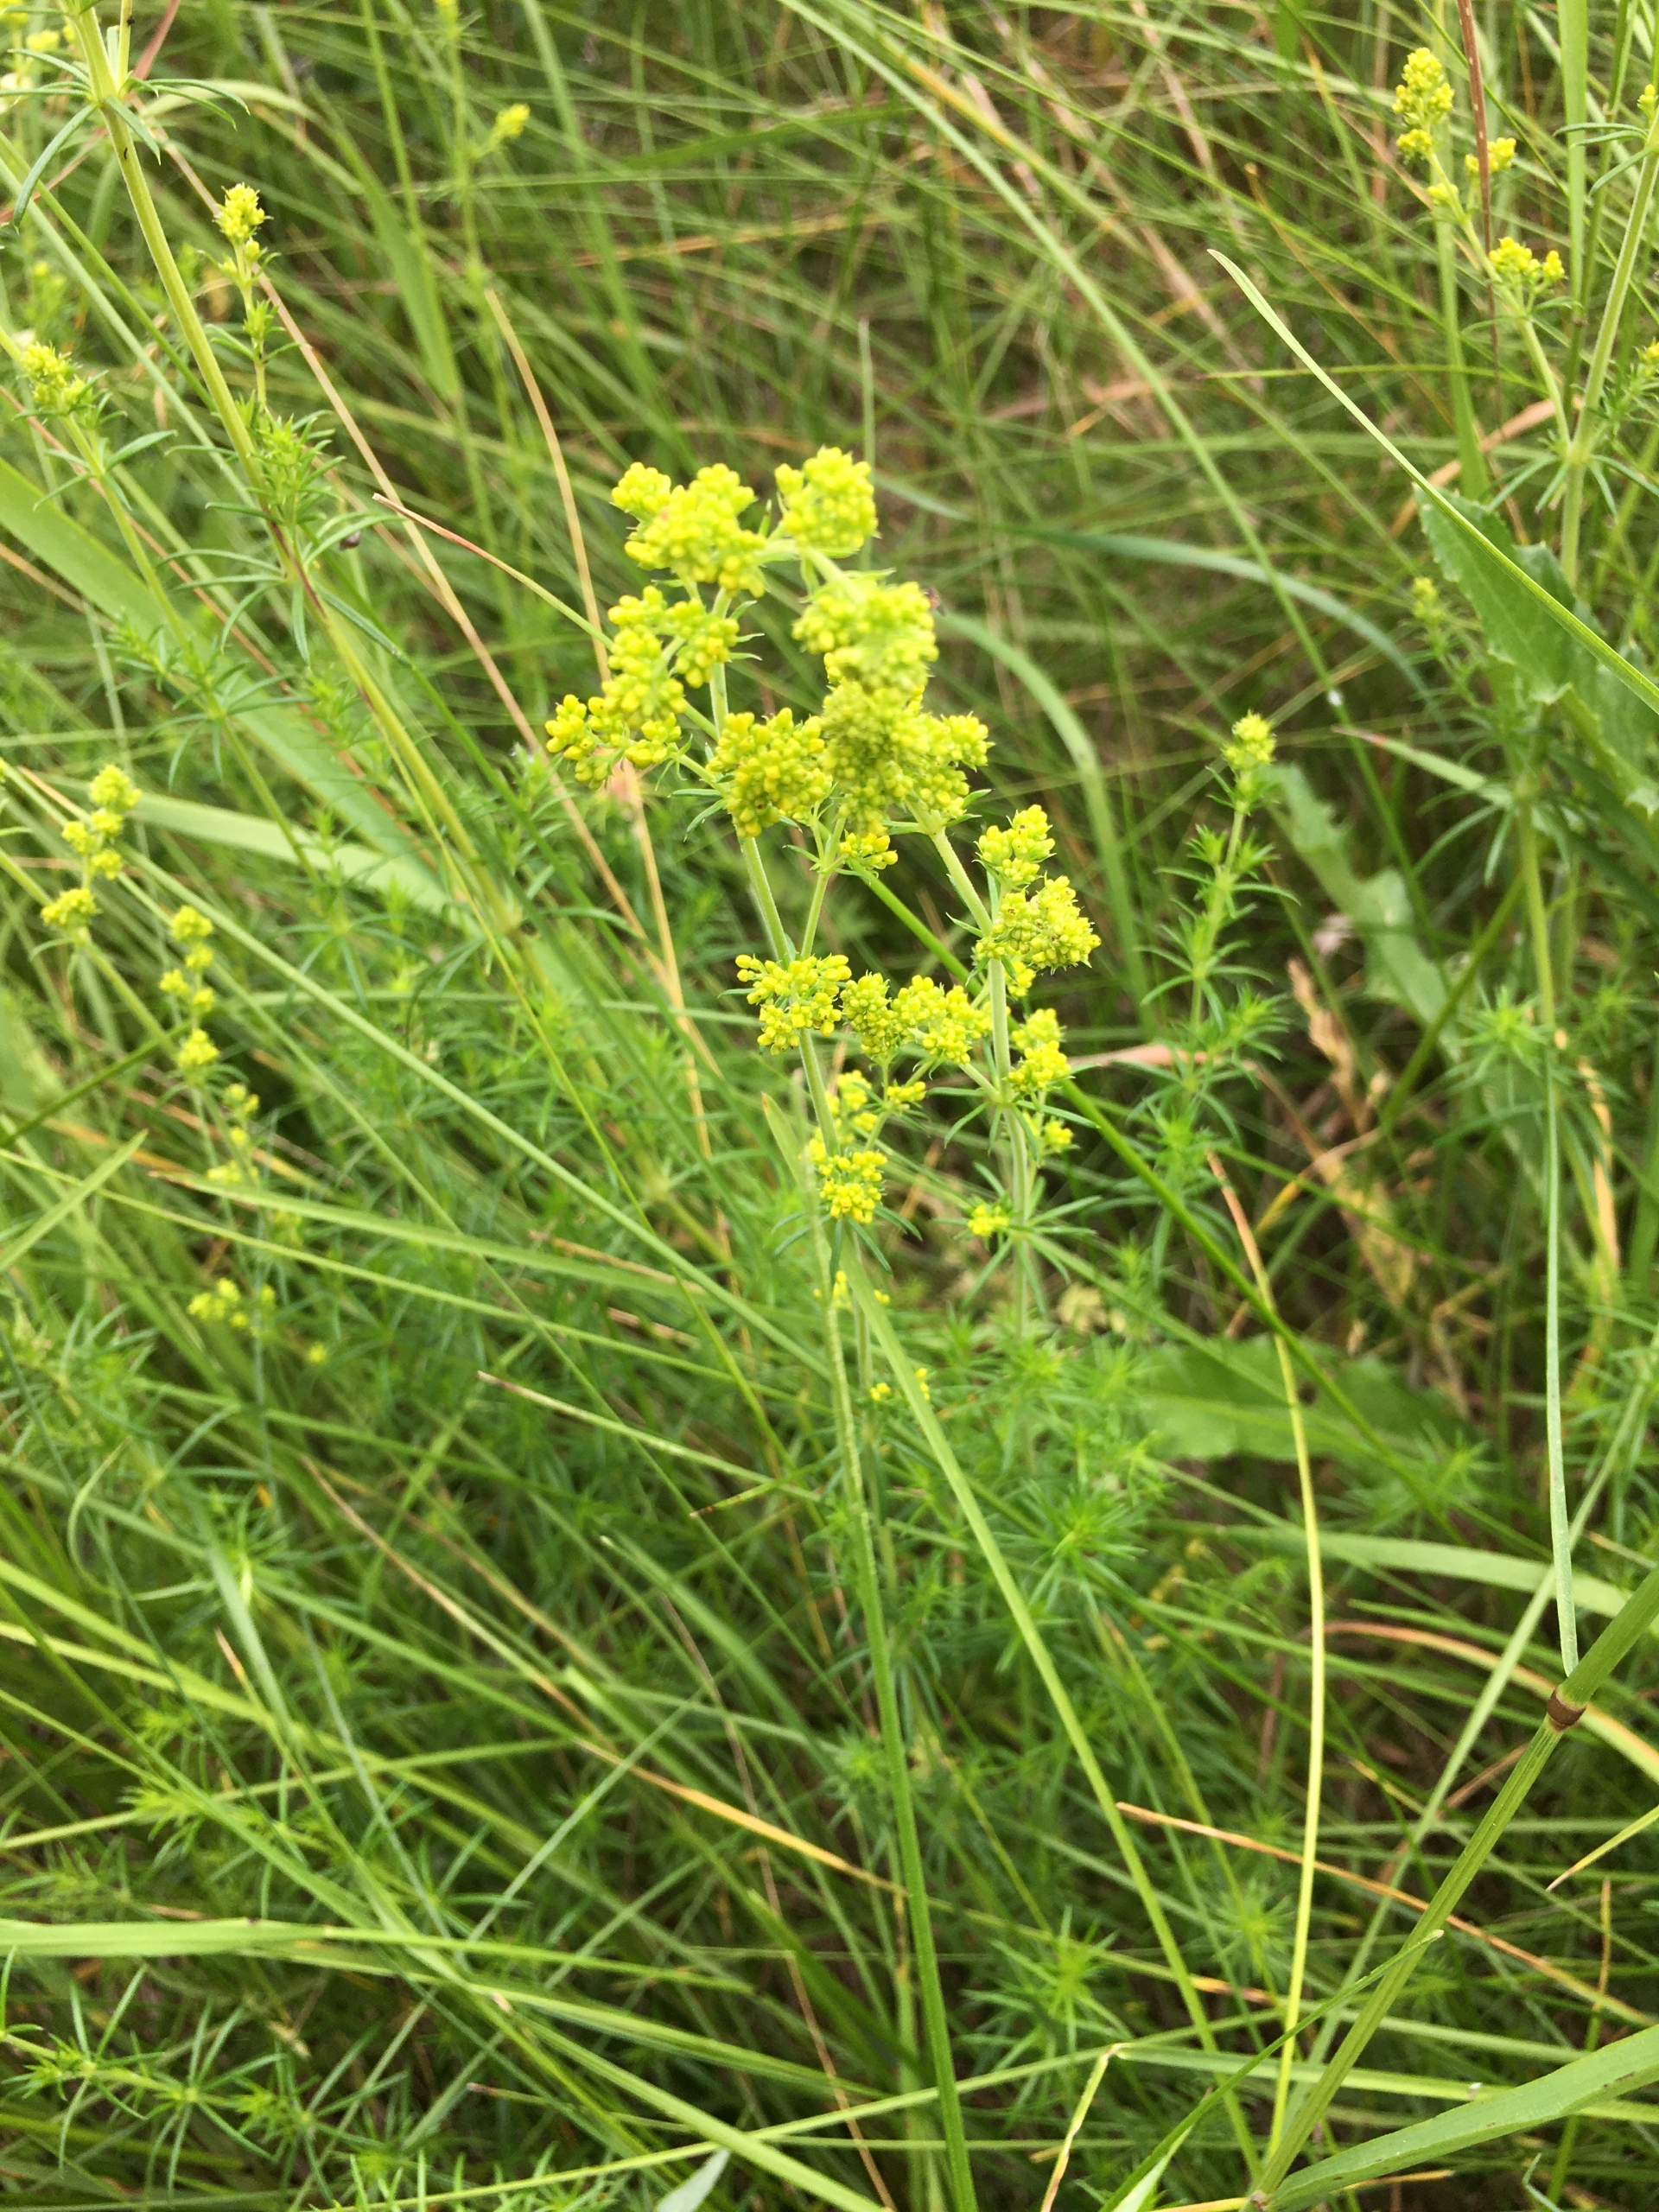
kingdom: Plantae
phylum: Tracheophyta
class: Magnoliopsida
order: Gentianales
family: Rubiaceae
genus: Galium
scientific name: Galium verum
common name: Gul snerre
